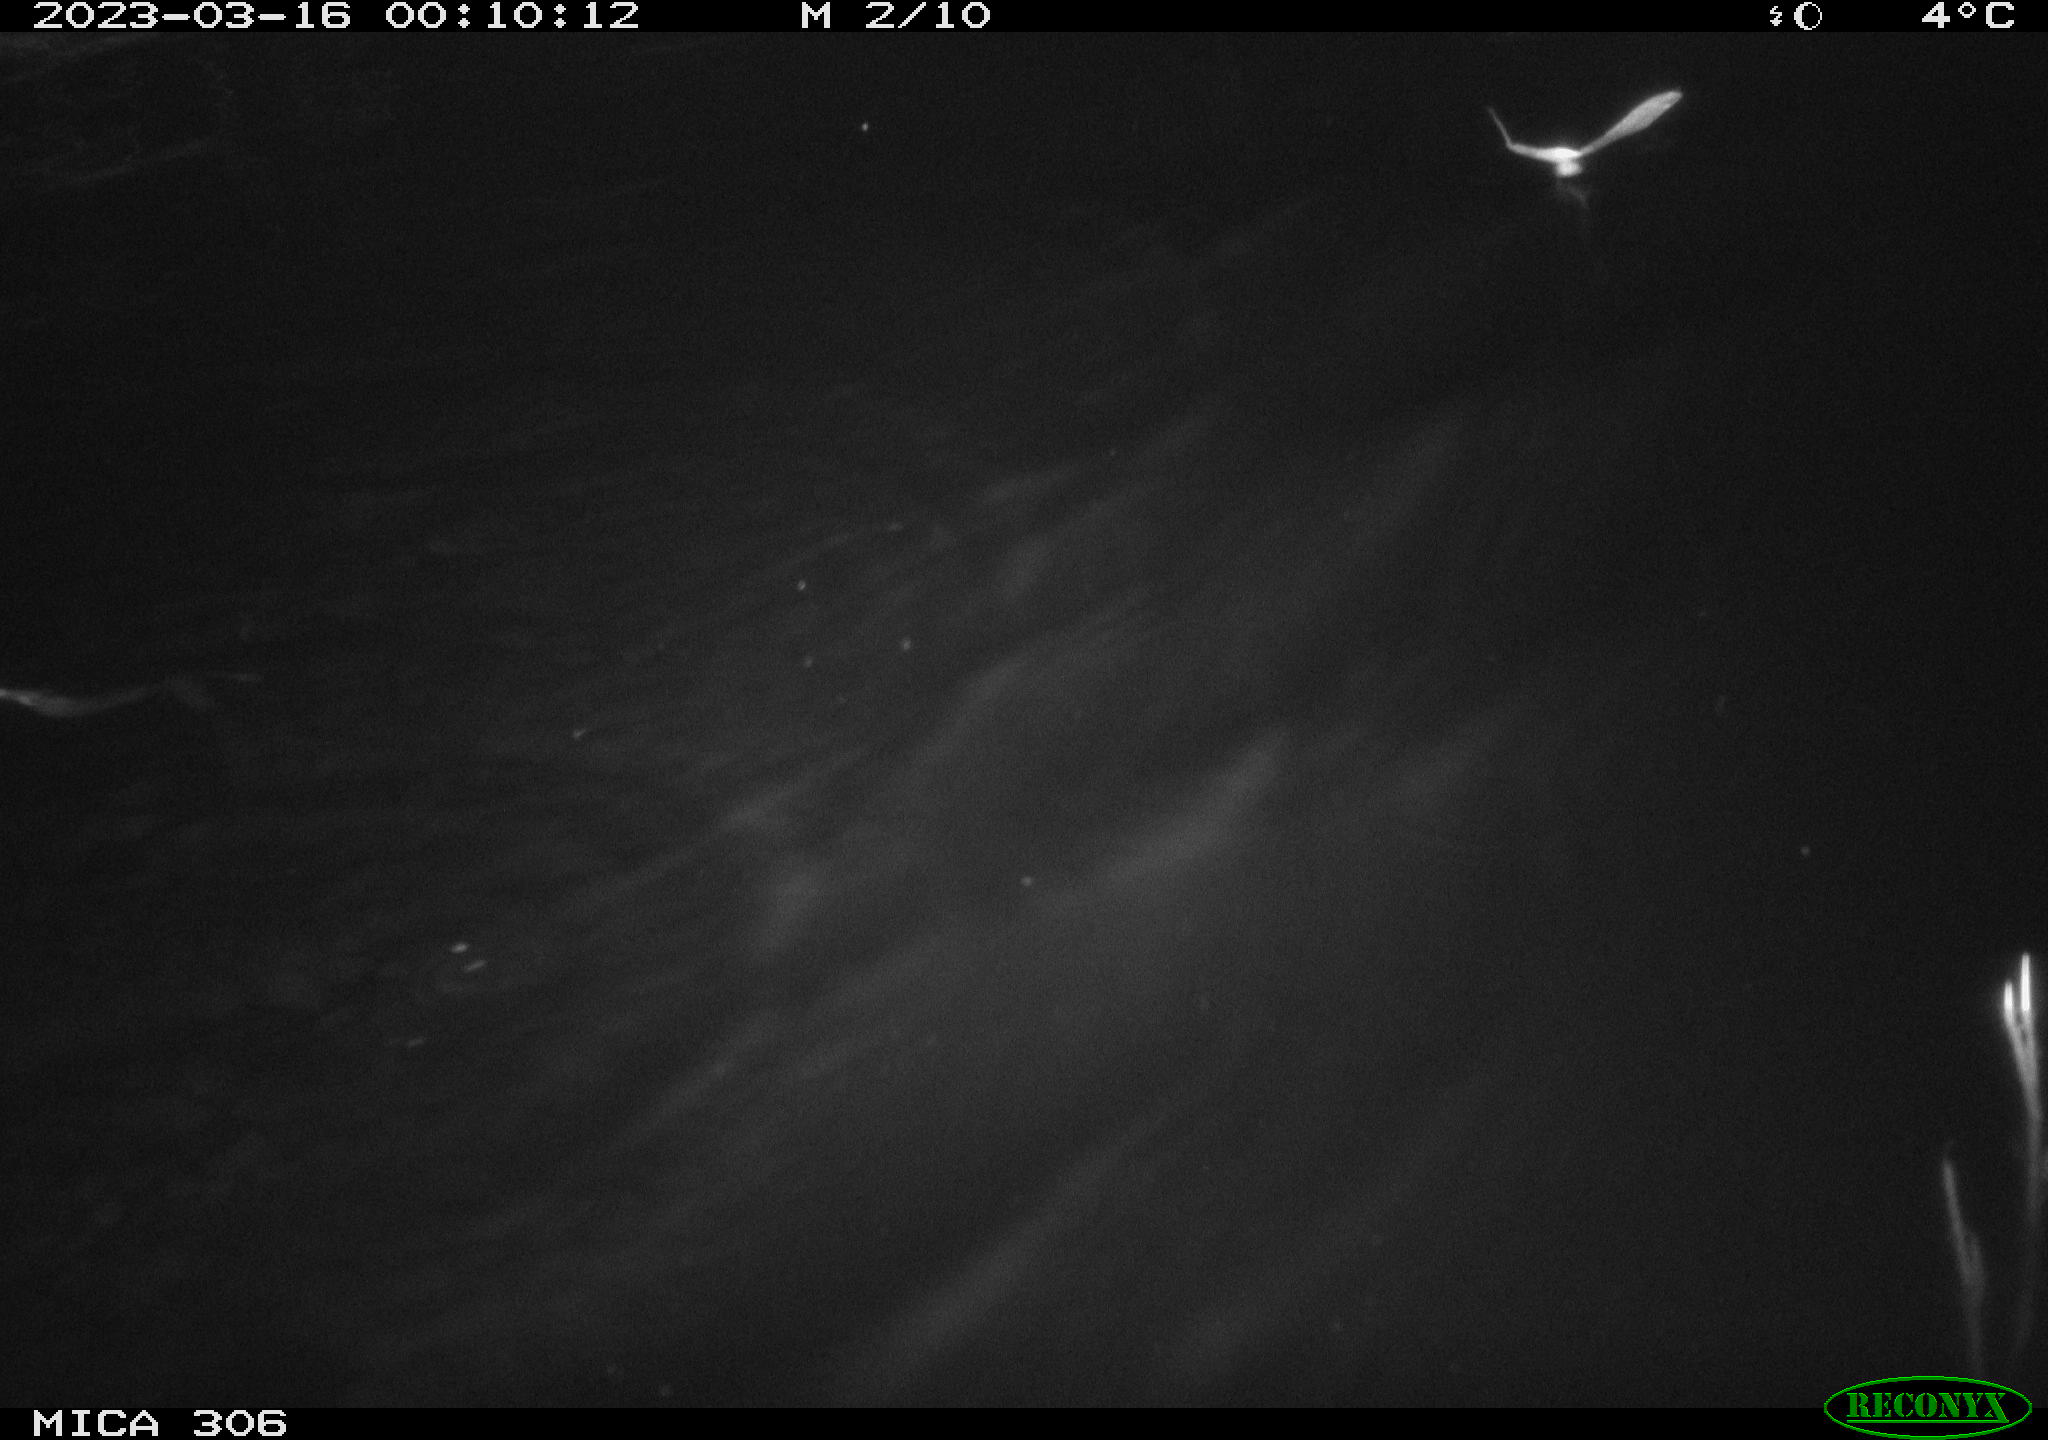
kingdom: Animalia
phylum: Chordata
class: Mammalia
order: Rodentia
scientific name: Rodentia
